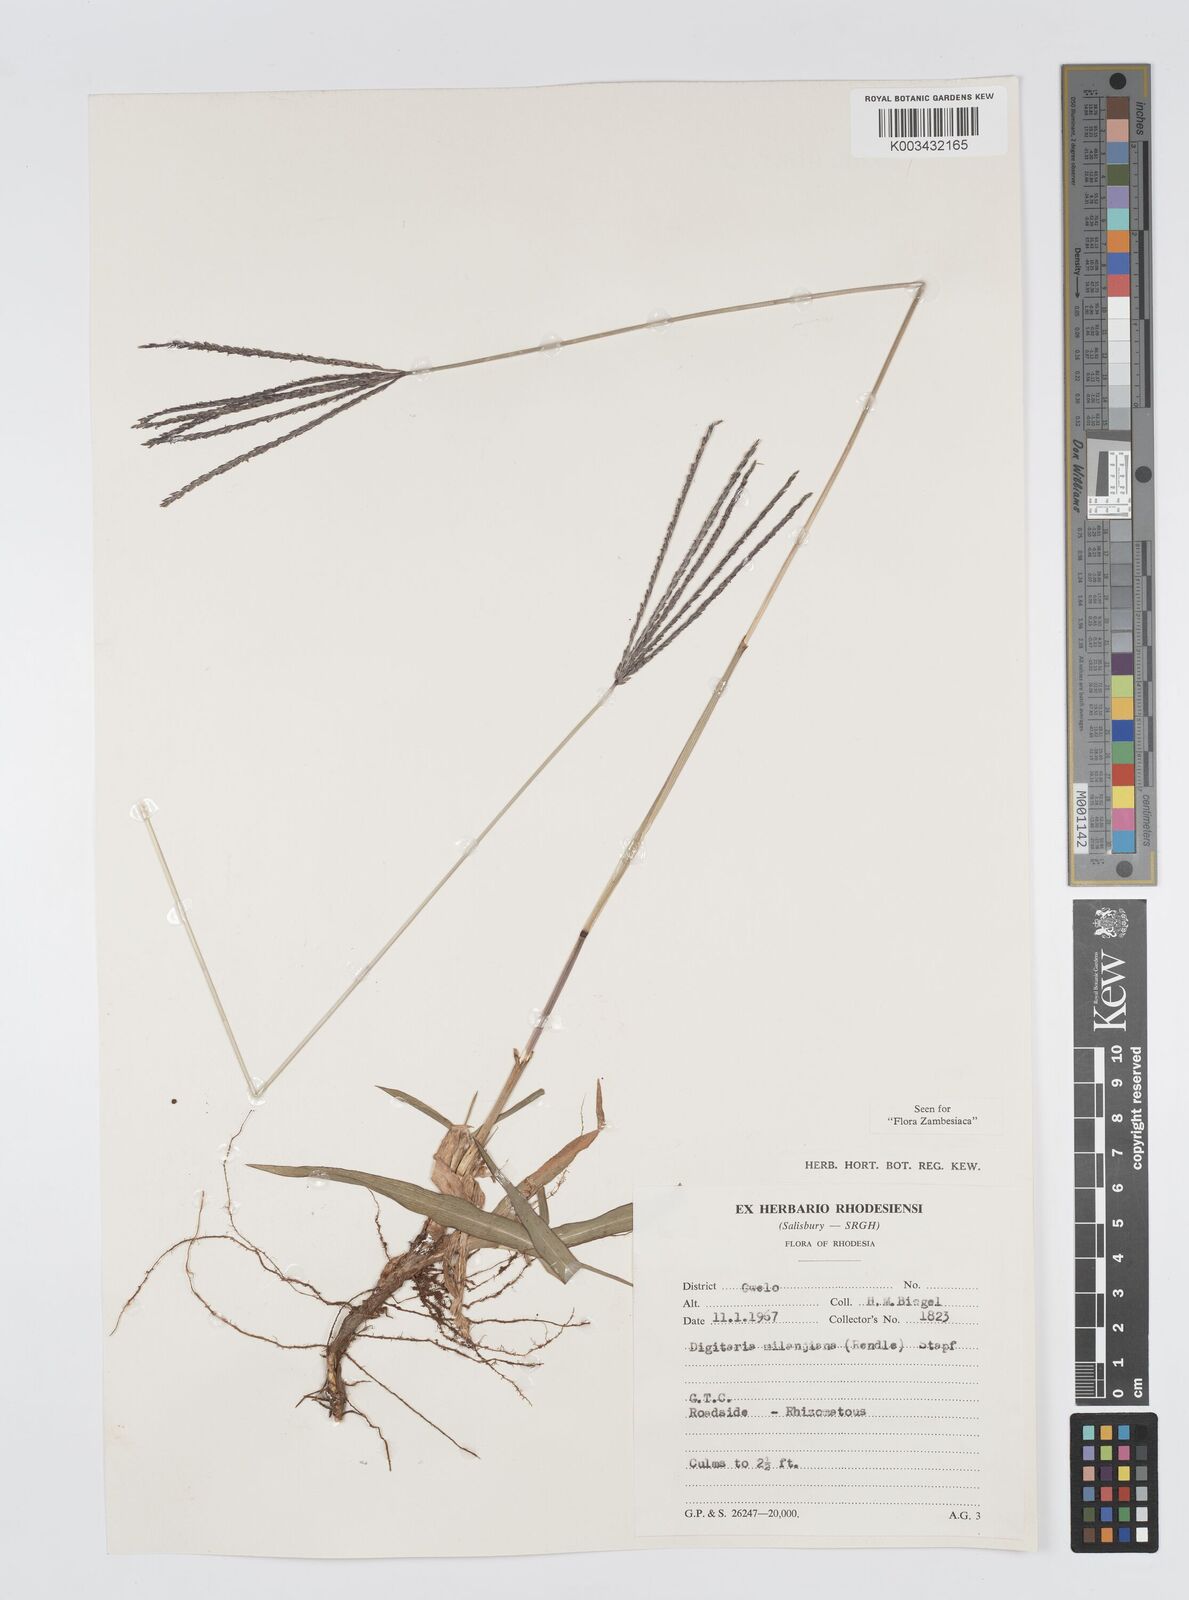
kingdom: Plantae
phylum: Tracheophyta
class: Liliopsida
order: Poales
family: Poaceae
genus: Digitaria
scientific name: Digitaria milanjiana
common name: Madagascar crabgrass
